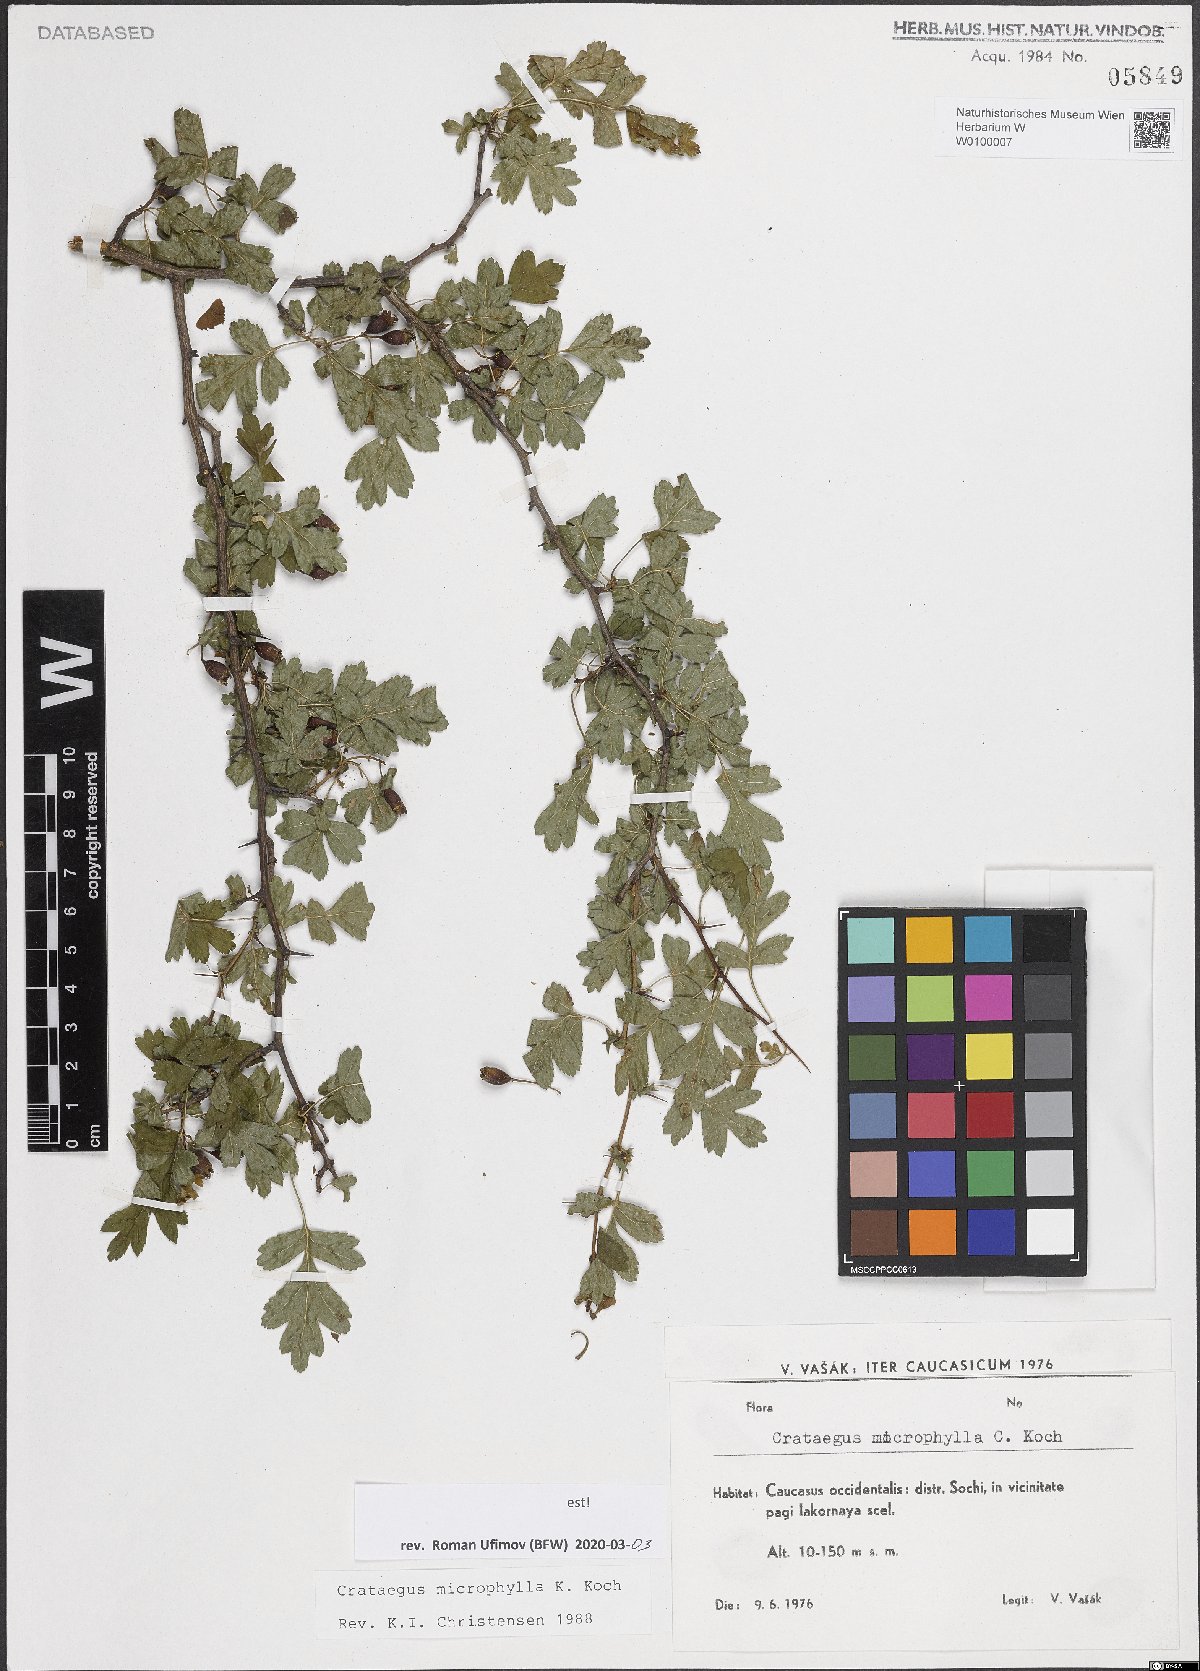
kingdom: Plantae
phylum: Tracheophyta
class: Magnoliopsida
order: Rosales
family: Rosaceae
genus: Crataegus
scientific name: Crataegus microphylla
